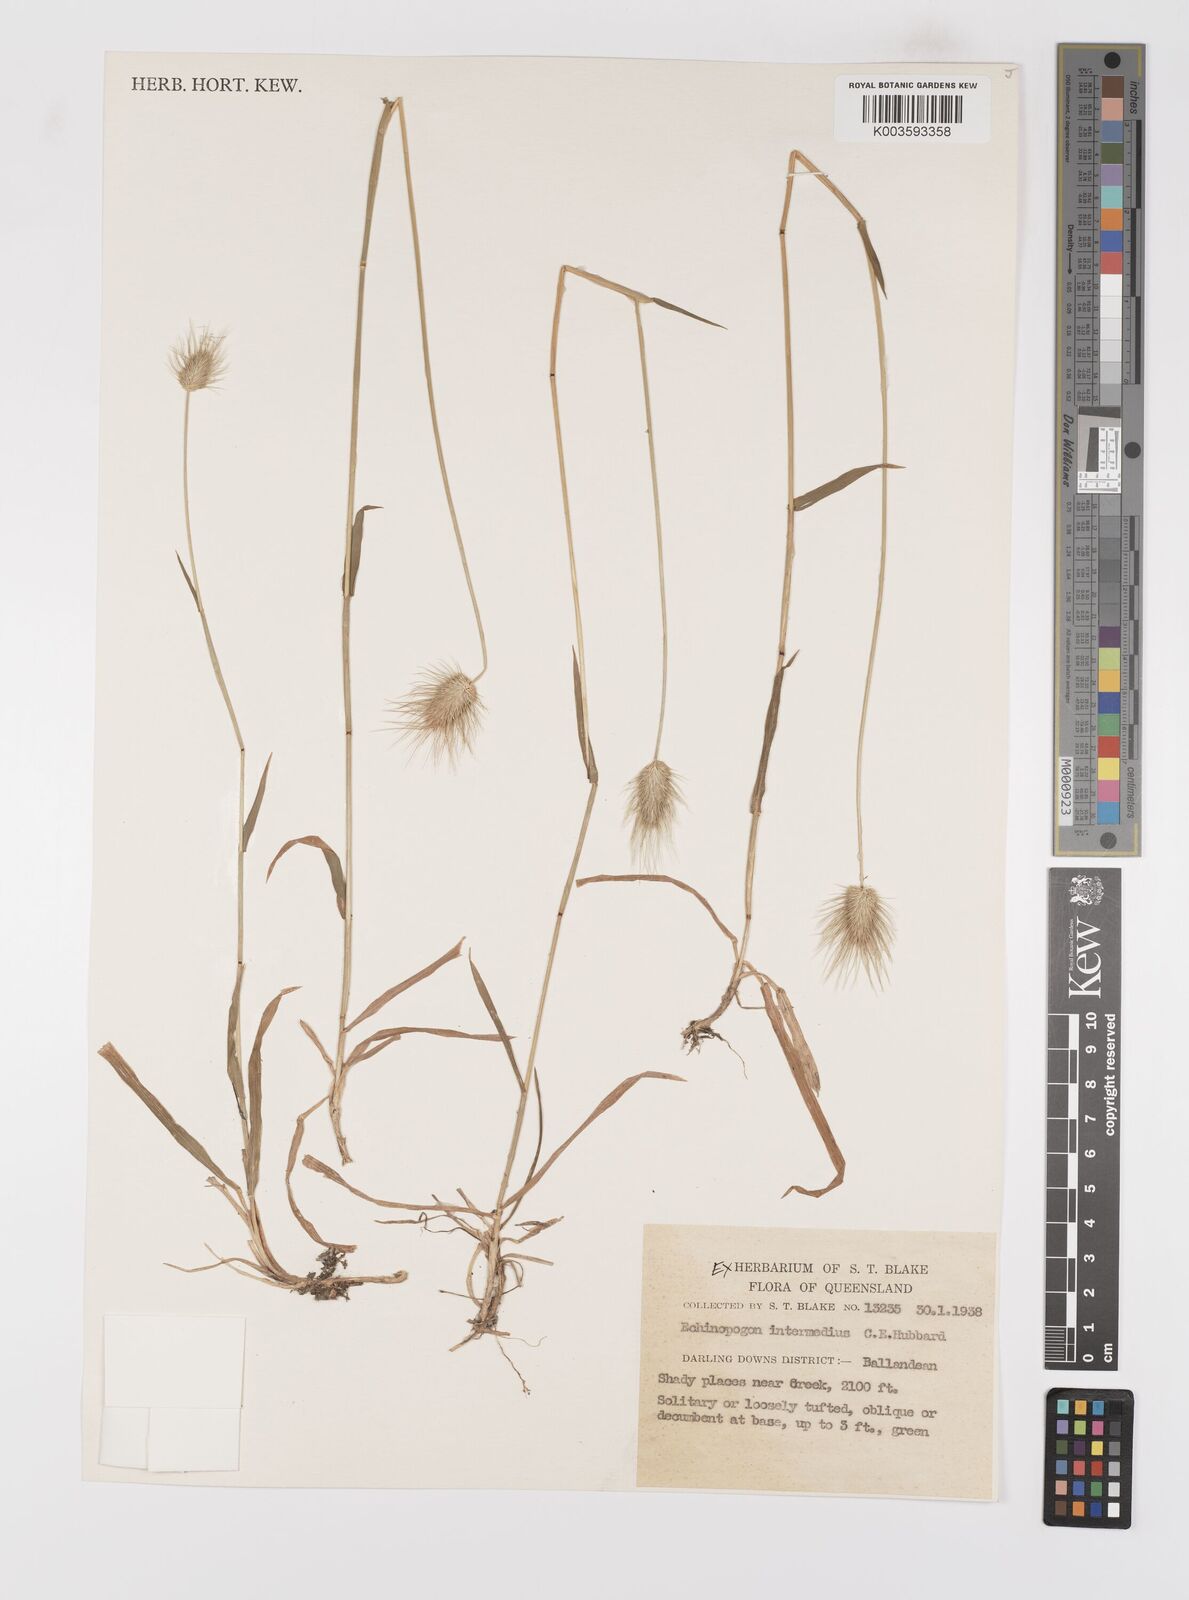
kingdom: Plantae
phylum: Tracheophyta
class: Liliopsida
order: Poales
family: Poaceae
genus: Echinopogon
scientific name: Echinopogon intermedius
